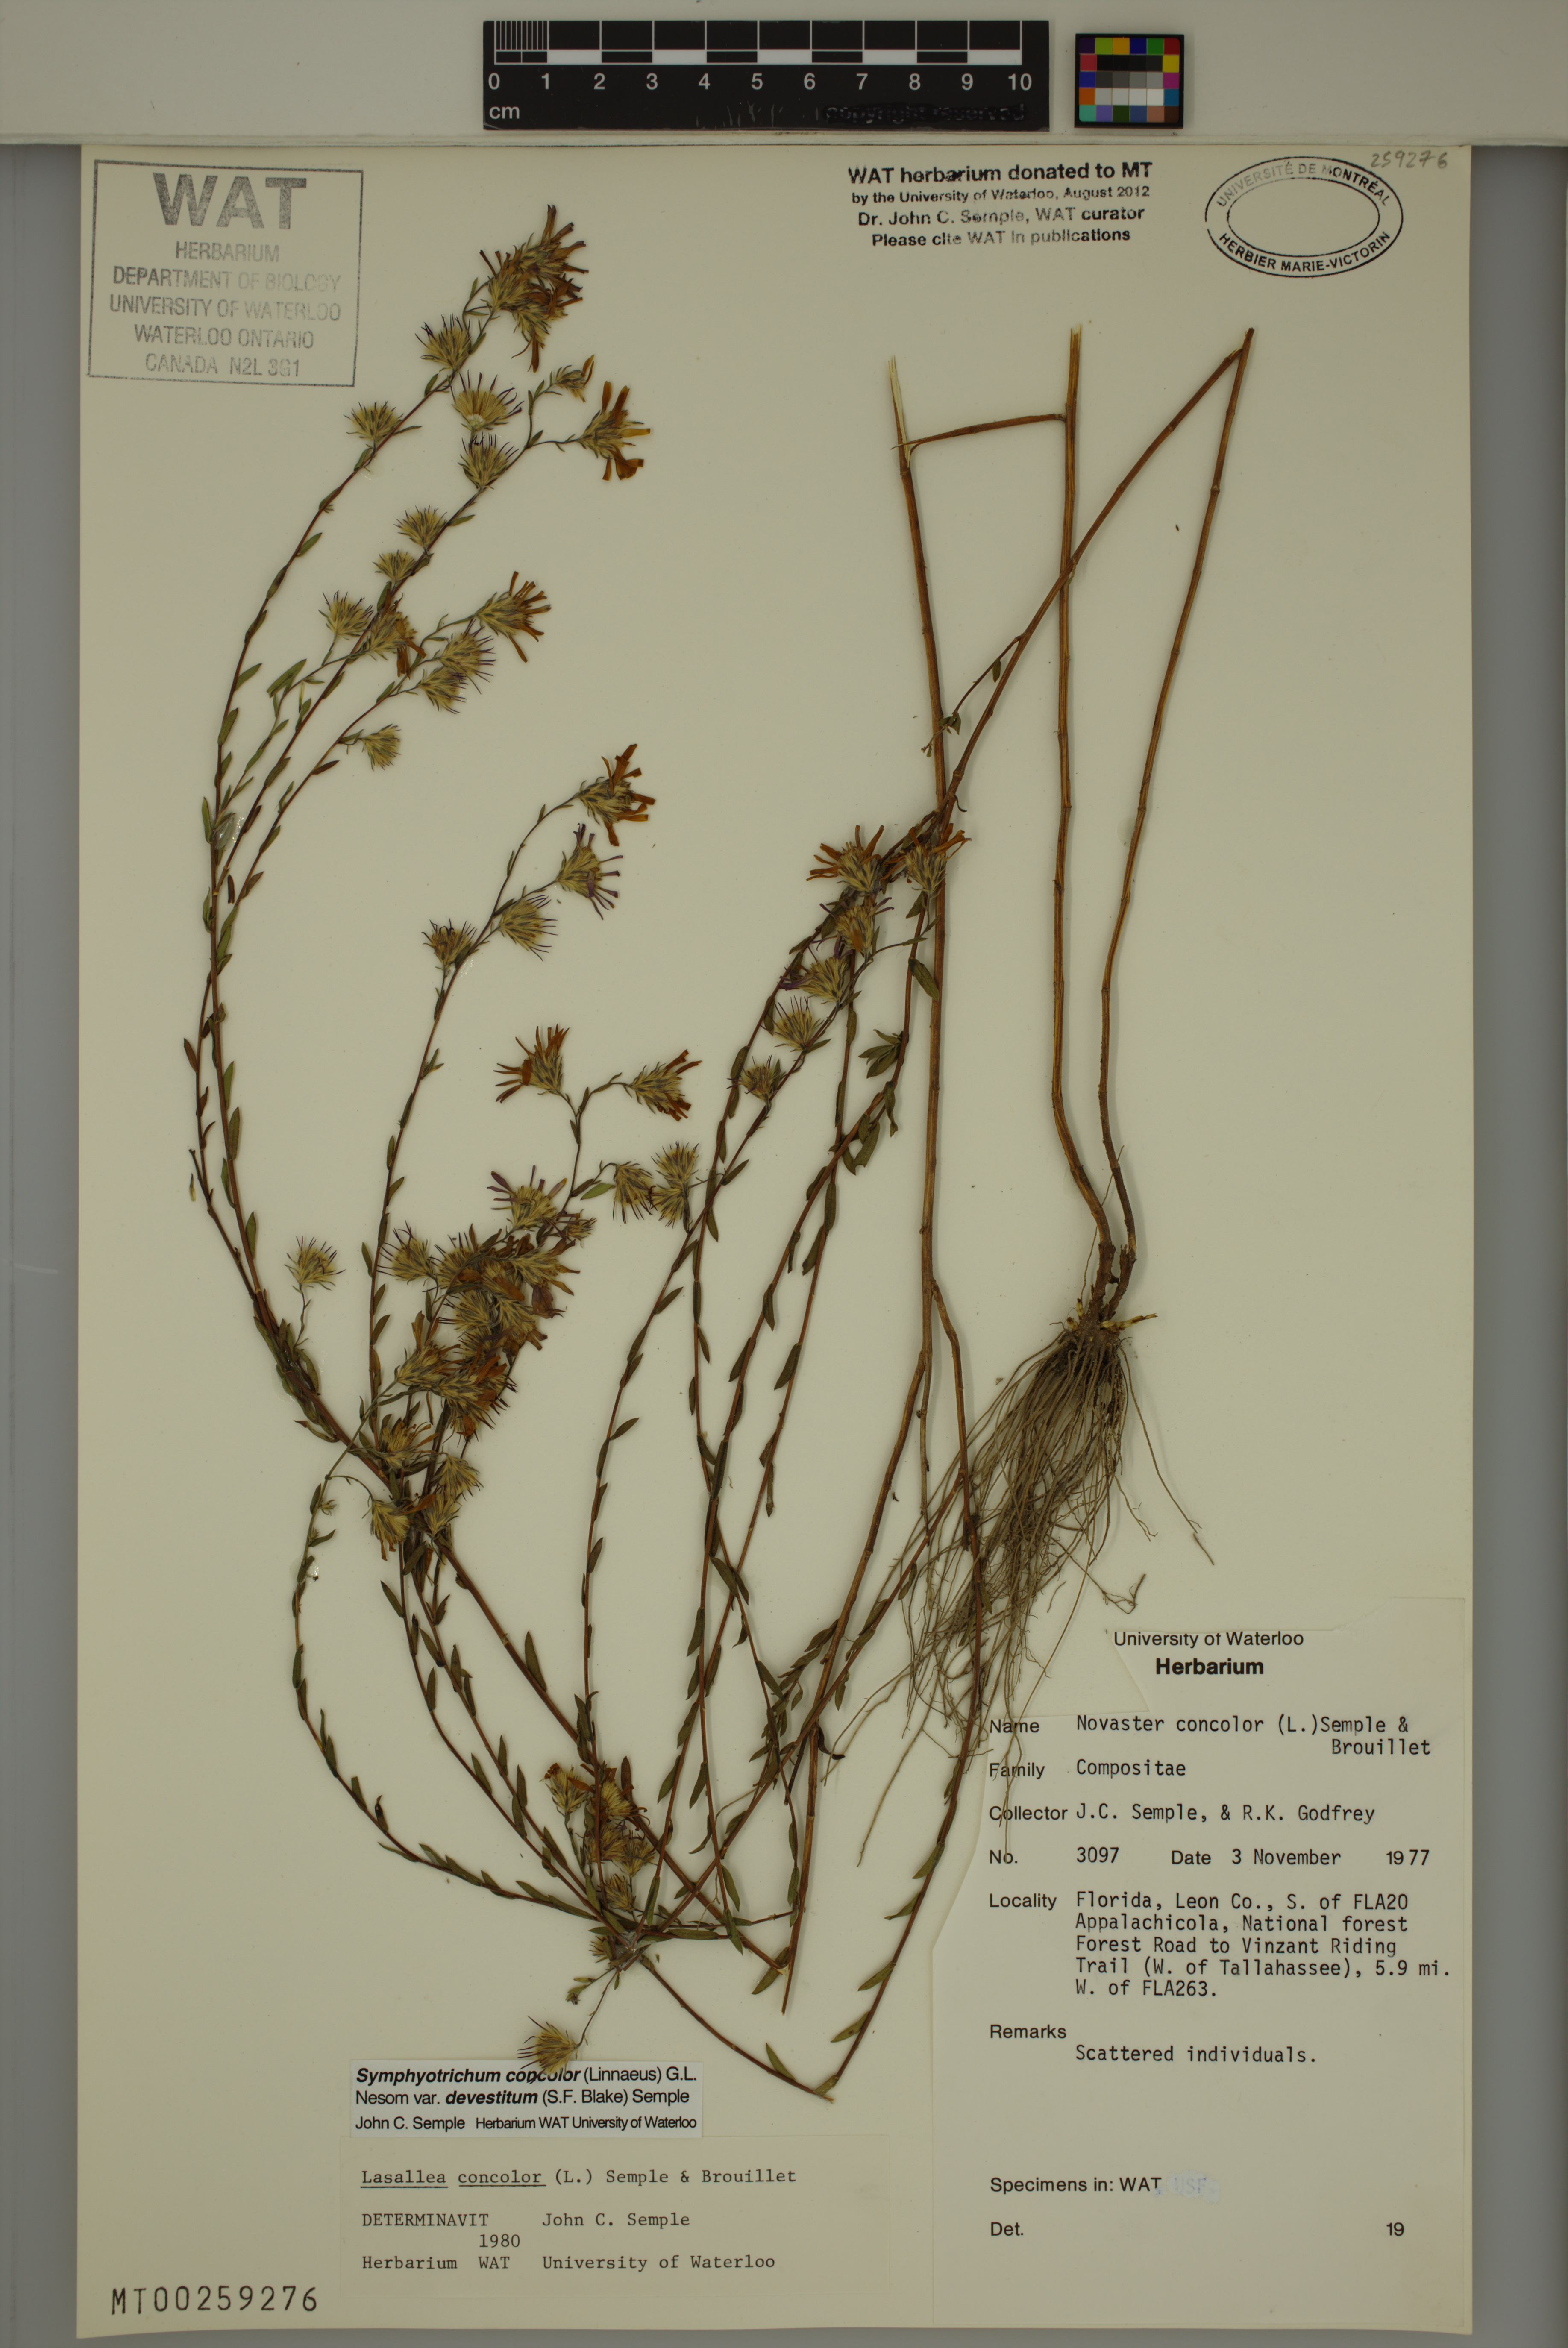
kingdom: Plantae
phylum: Tracheophyta
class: Magnoliopsida
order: Asterales
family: Asteraceae
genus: Symphyotrichum
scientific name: Symphyotrichum concolor
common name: Eastern silver aster
